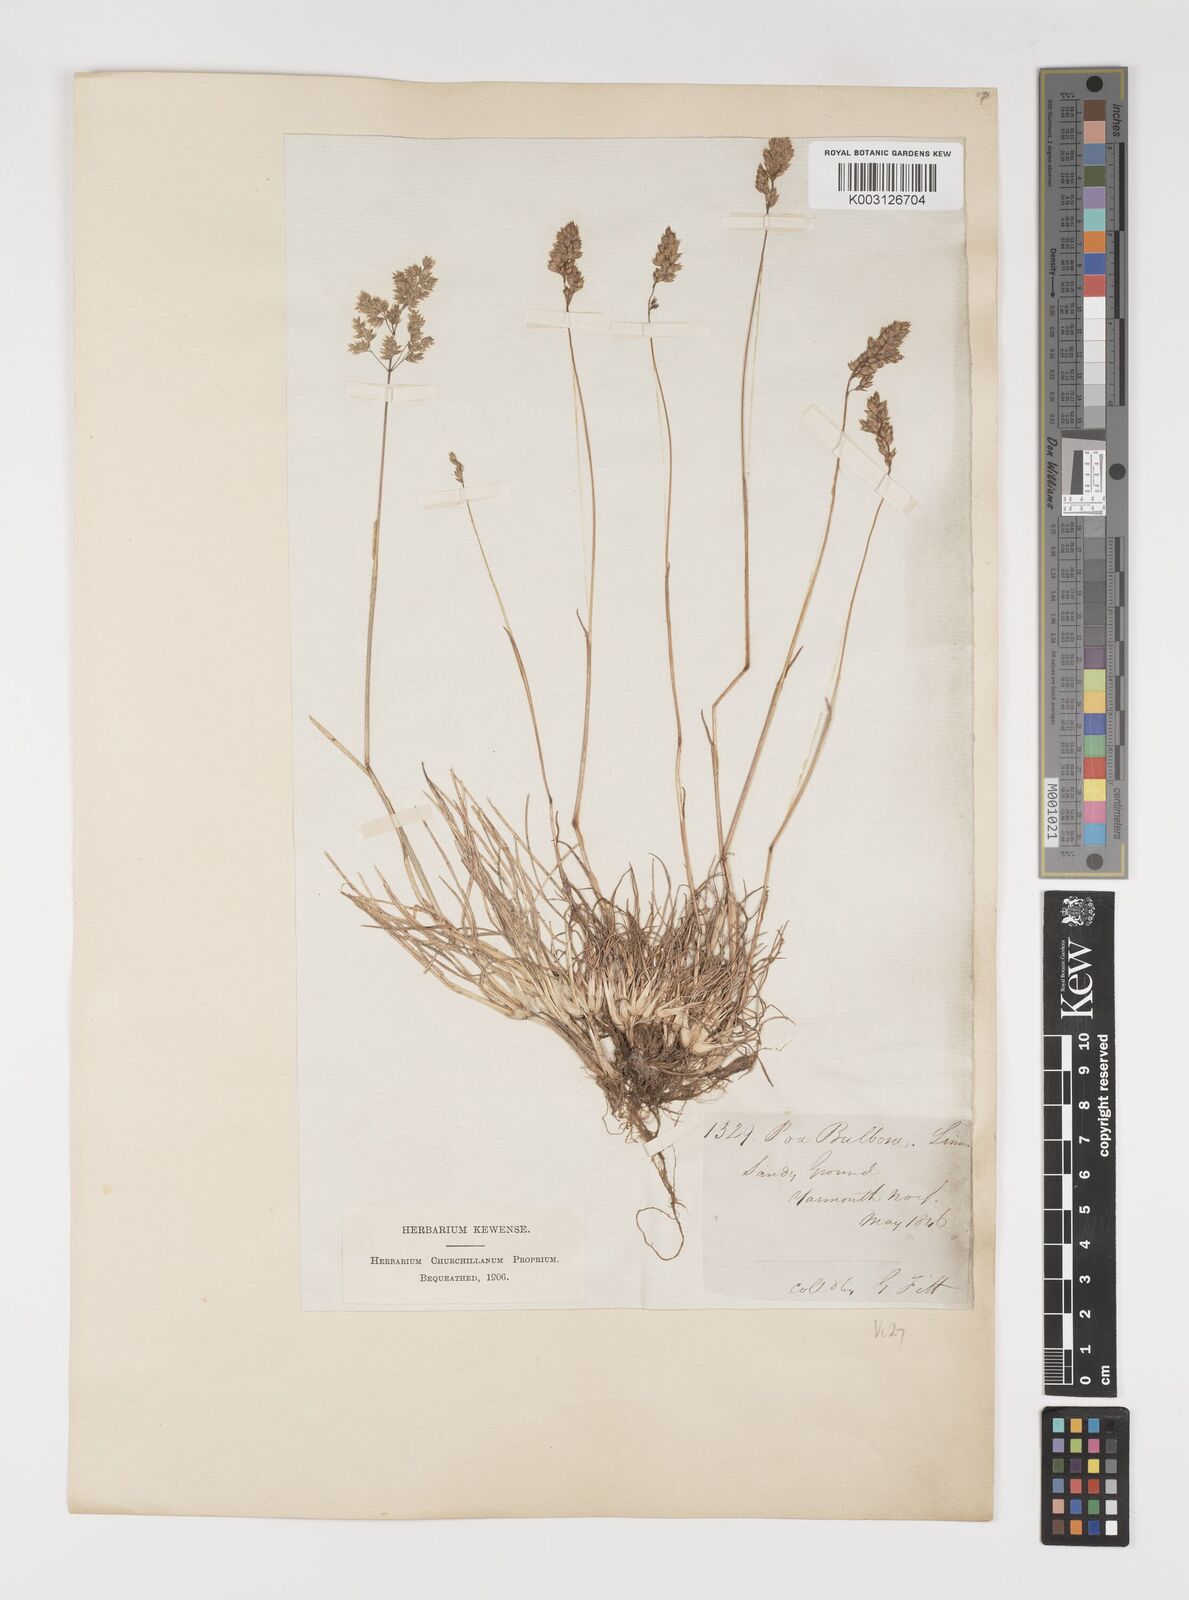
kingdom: Plantae
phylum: Tracheophyta
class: Liliopsida
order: Poales
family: Poaceae
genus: Poa
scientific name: Poa bulbosa
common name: Bulbous bluegrass
